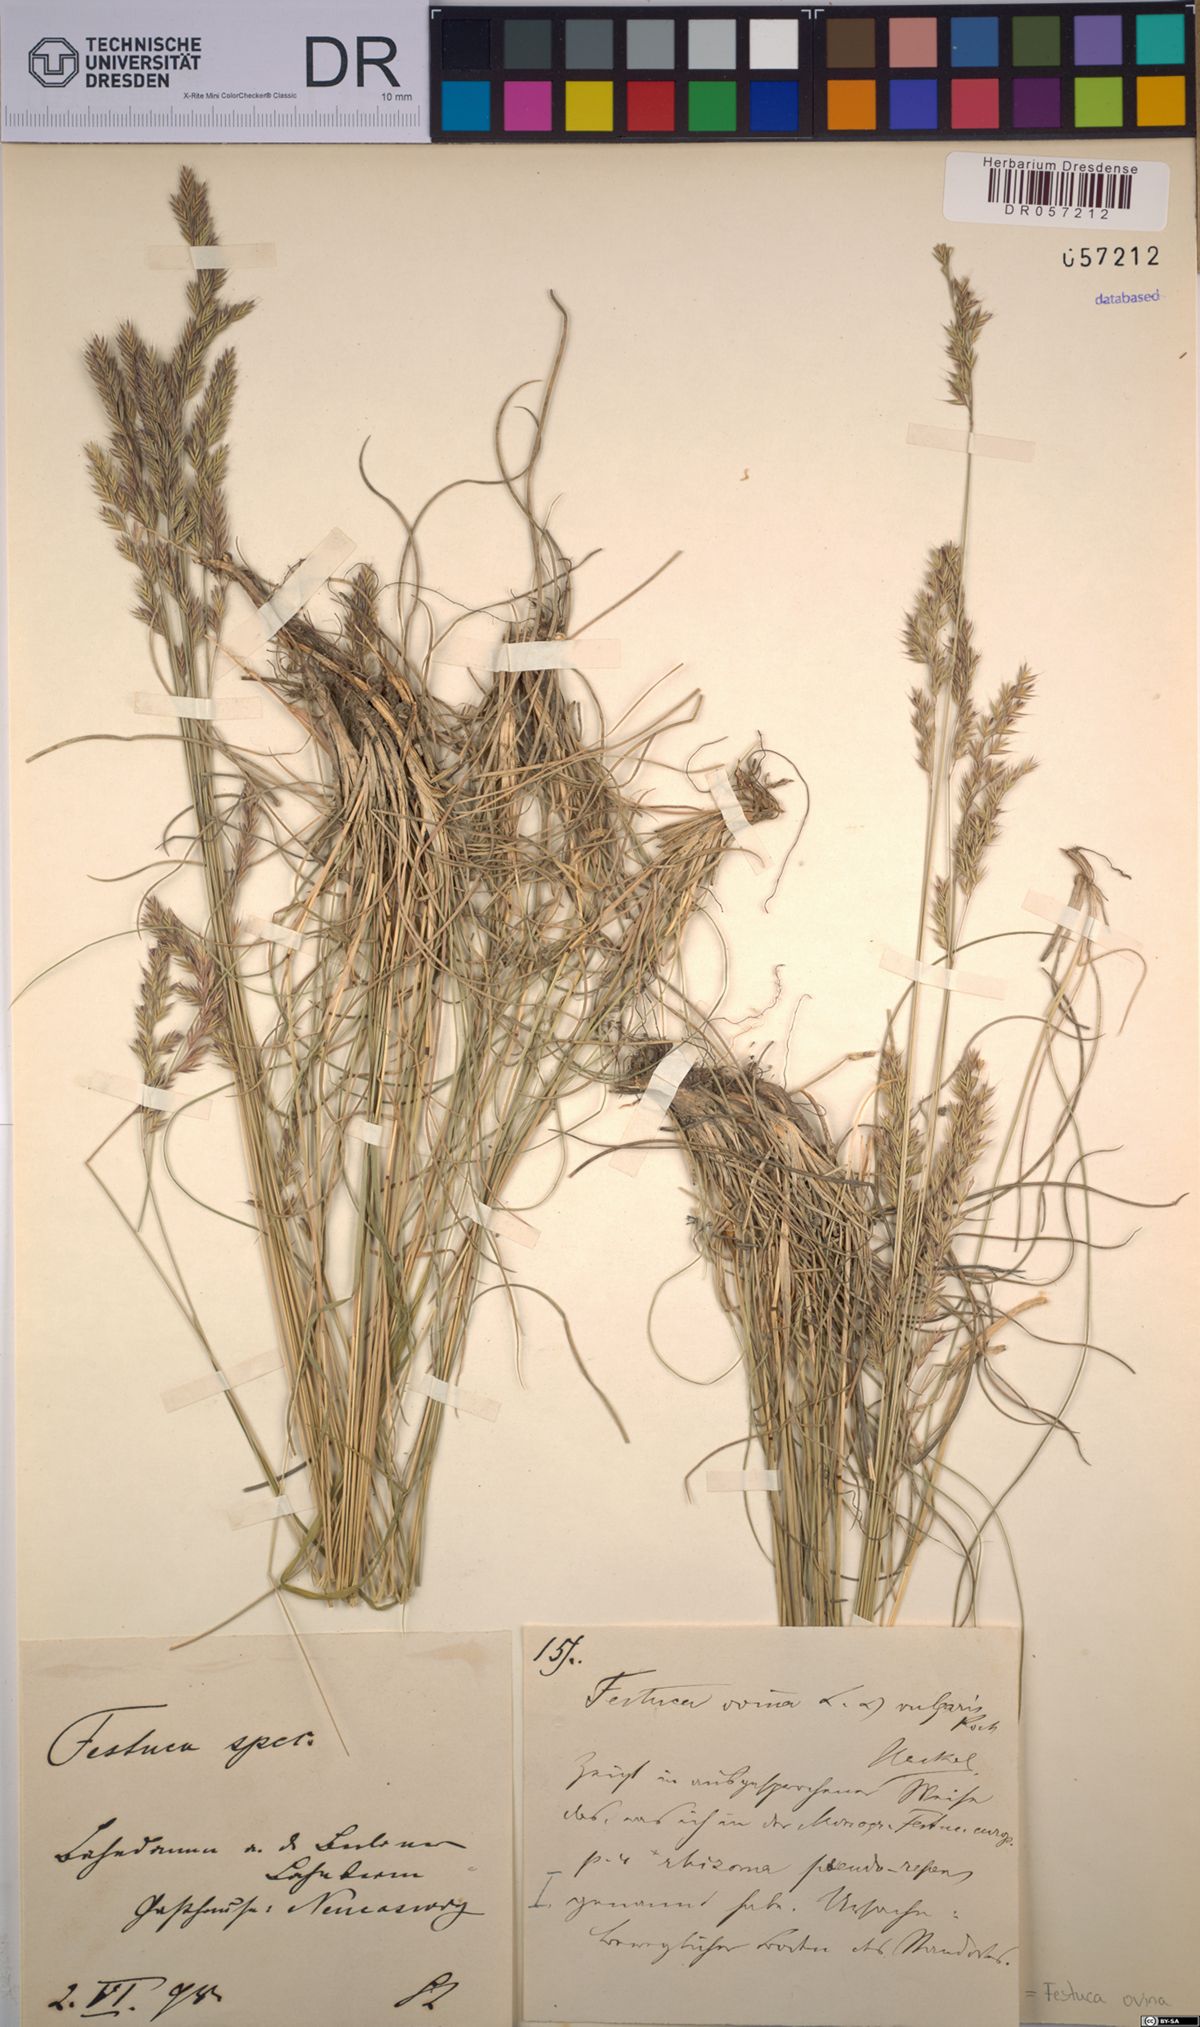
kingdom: Plantae
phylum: Tracheophyta
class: Liliopsida
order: Poales
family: Poaceae
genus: Festuca
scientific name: Festuca ovina
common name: Sheep fescue
